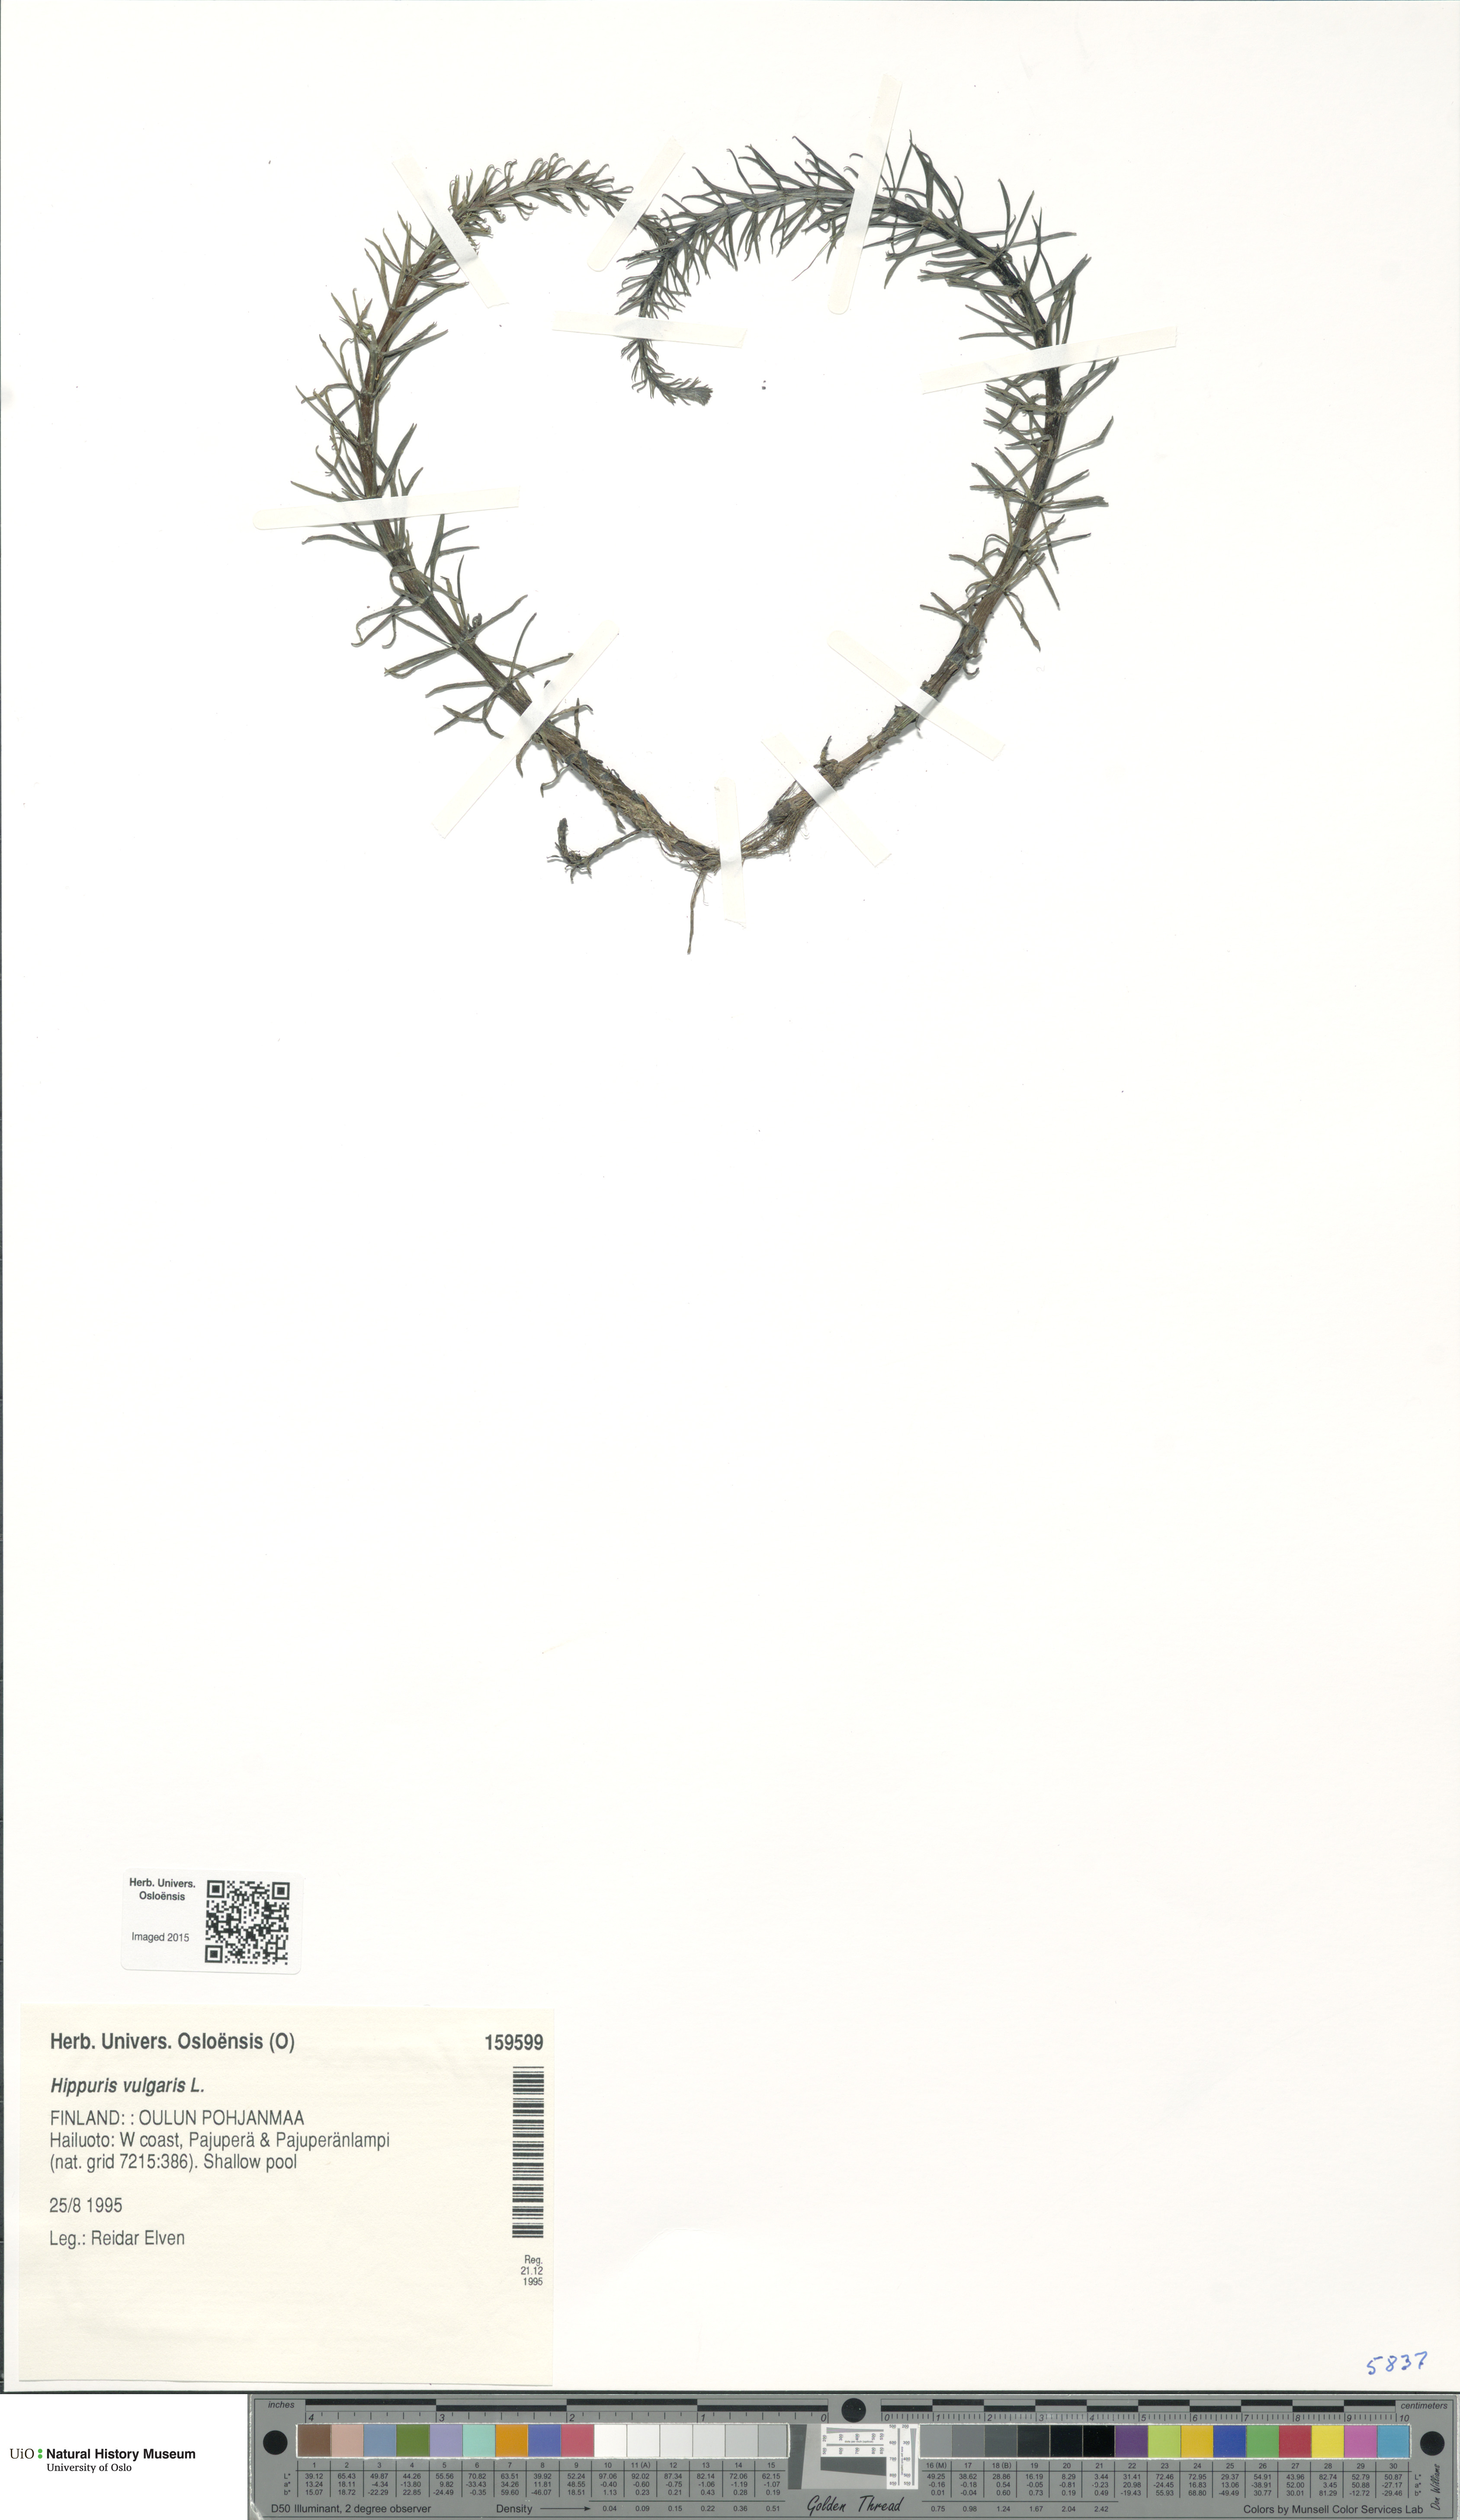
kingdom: Plantae
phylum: Tracheophyta
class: Magnoliopsida
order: Lamiales
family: Plantaginaceae
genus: Hippuris
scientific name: Hippuris vulgaris
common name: Mare's-tail
